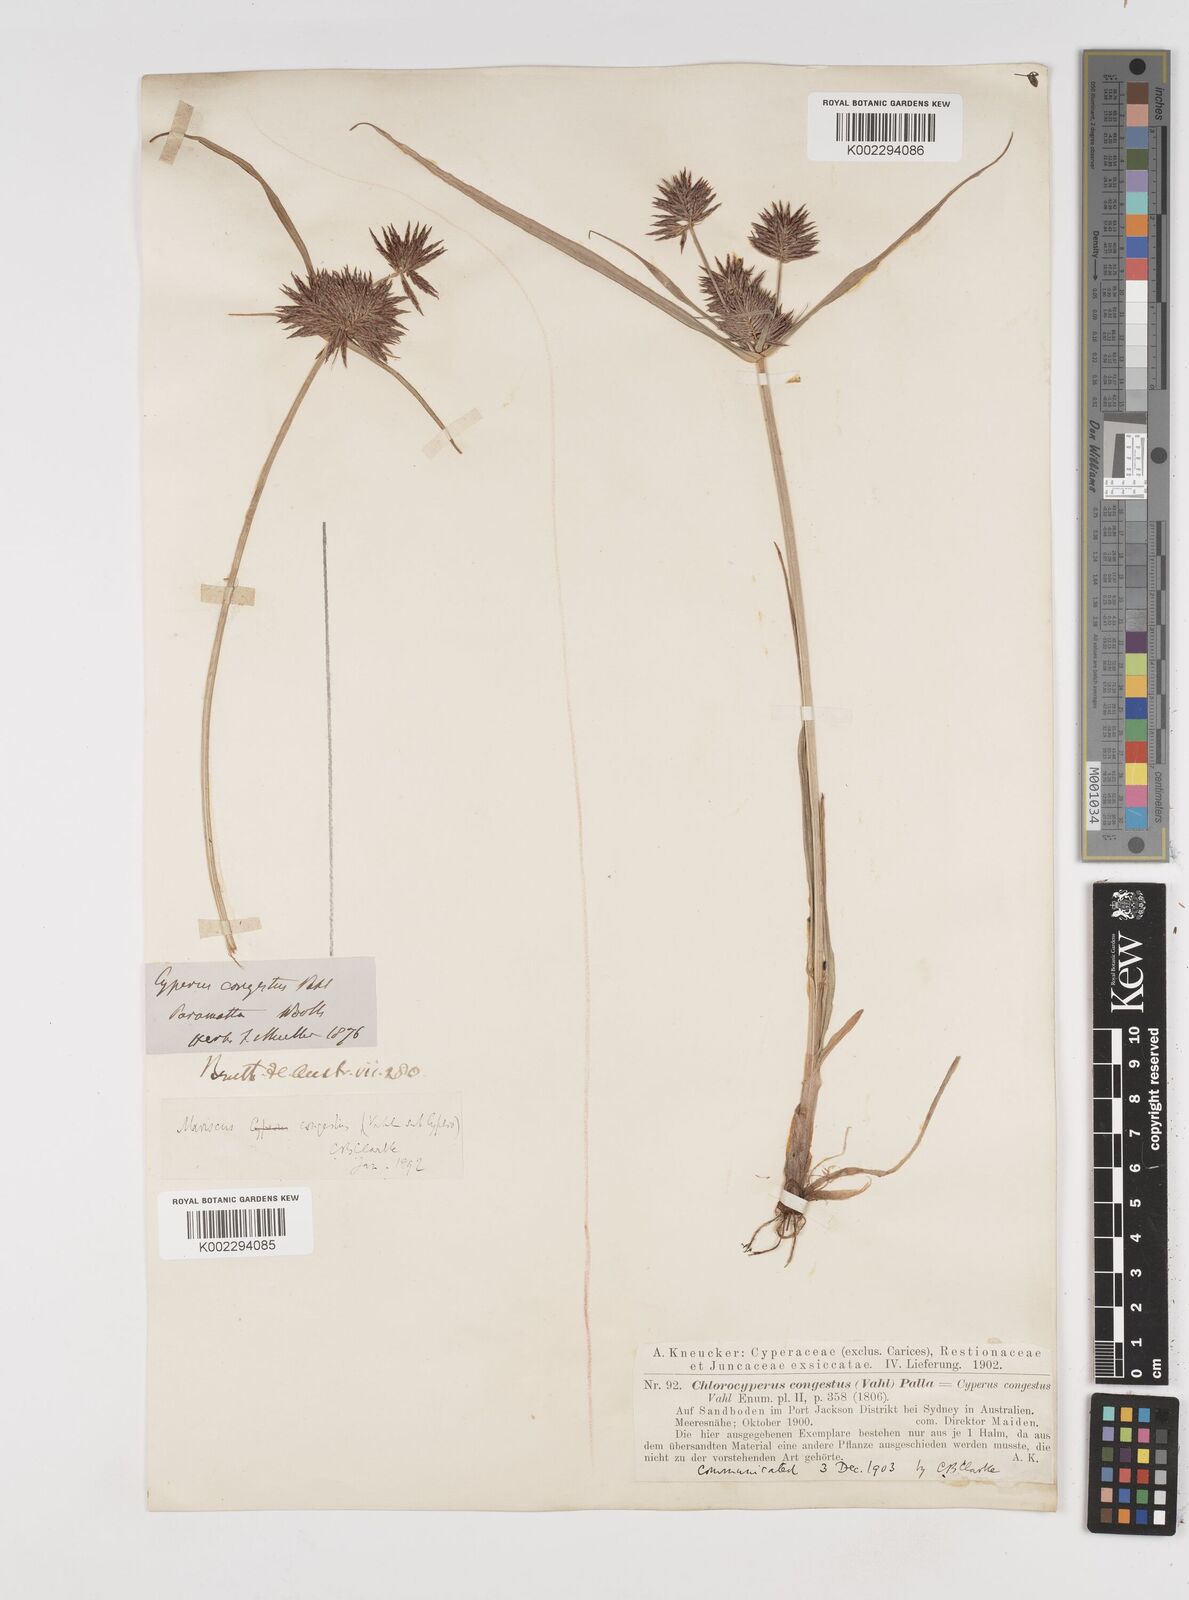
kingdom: Plantae
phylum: Tracheophyta
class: Liliopsida
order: Poales
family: Cyperaceae
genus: Cyperus
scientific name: Cyperus congestus
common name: Dense flat sedge
